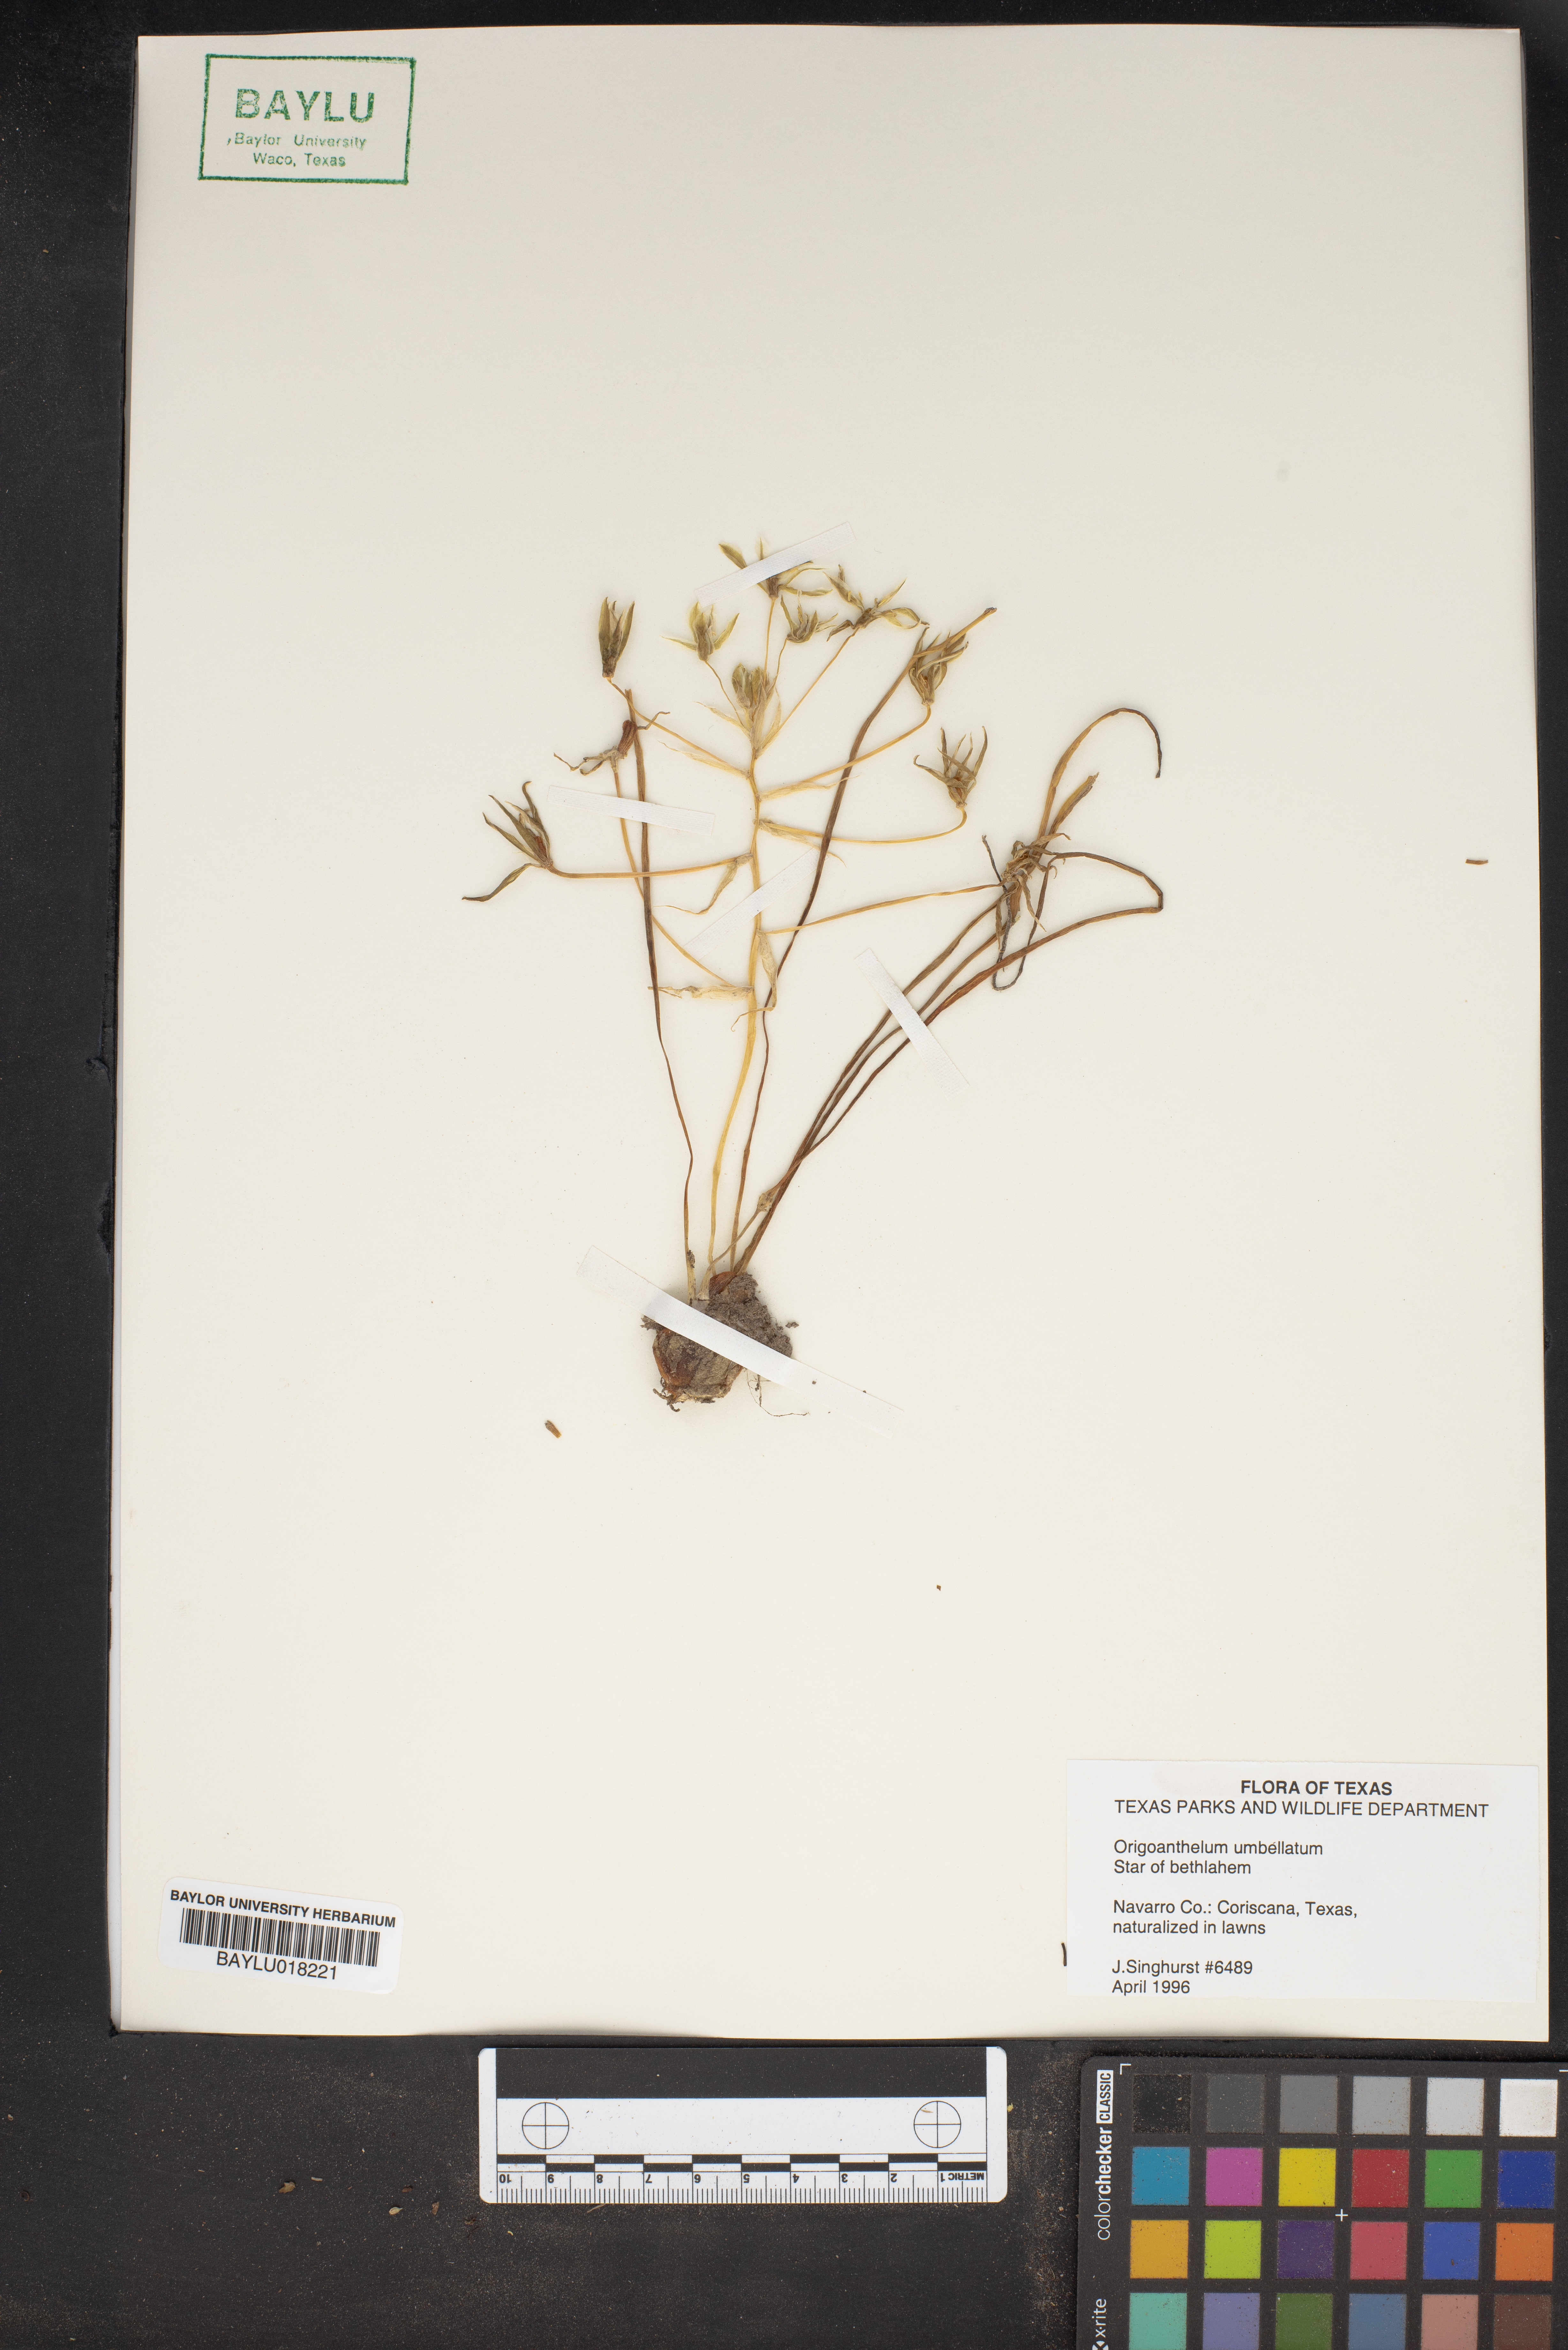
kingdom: Plantae
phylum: Tracheophyta
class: Liliopsida
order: Asparagales
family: Asparagaceae
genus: Ornithogalum
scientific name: Ornithogalum umbellatum
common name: Garden star-of-bethlehem
